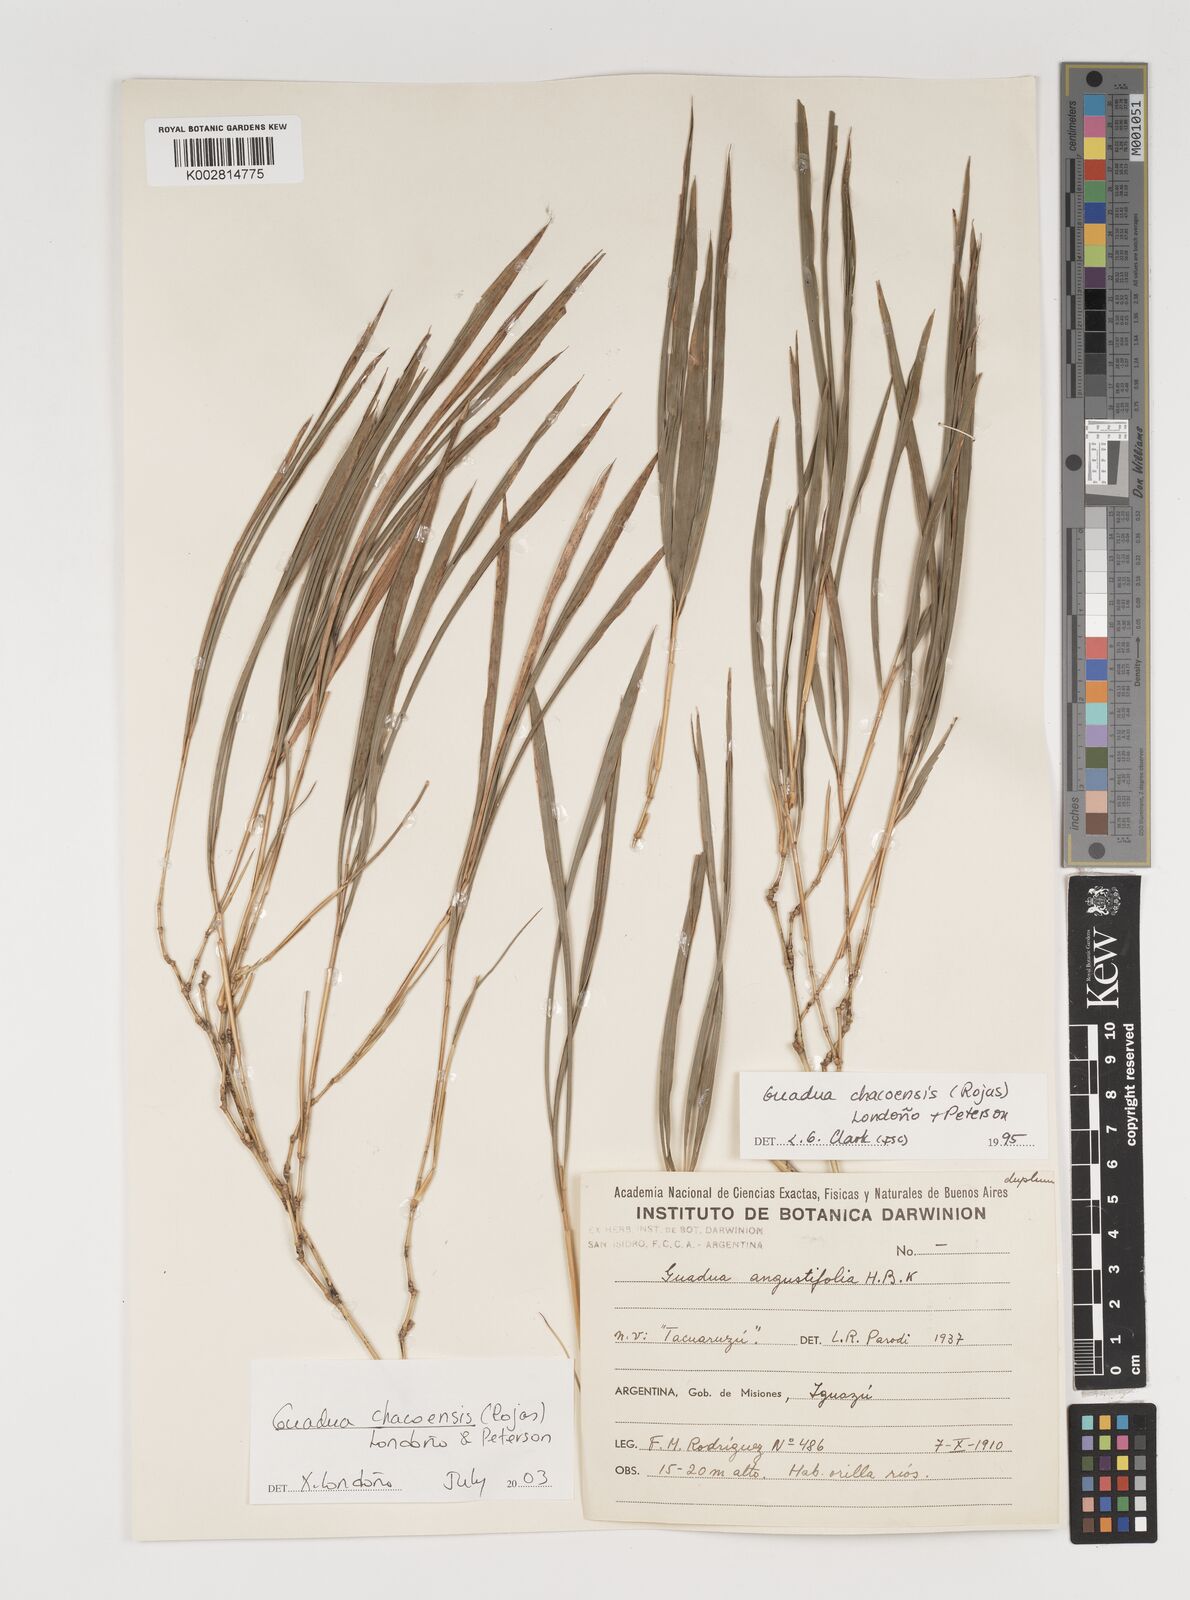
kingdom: Plantae
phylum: Tracheophyta
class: Liliopsida
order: Poales
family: Poaceae
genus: Guadua
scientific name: Guadua chacoensis
